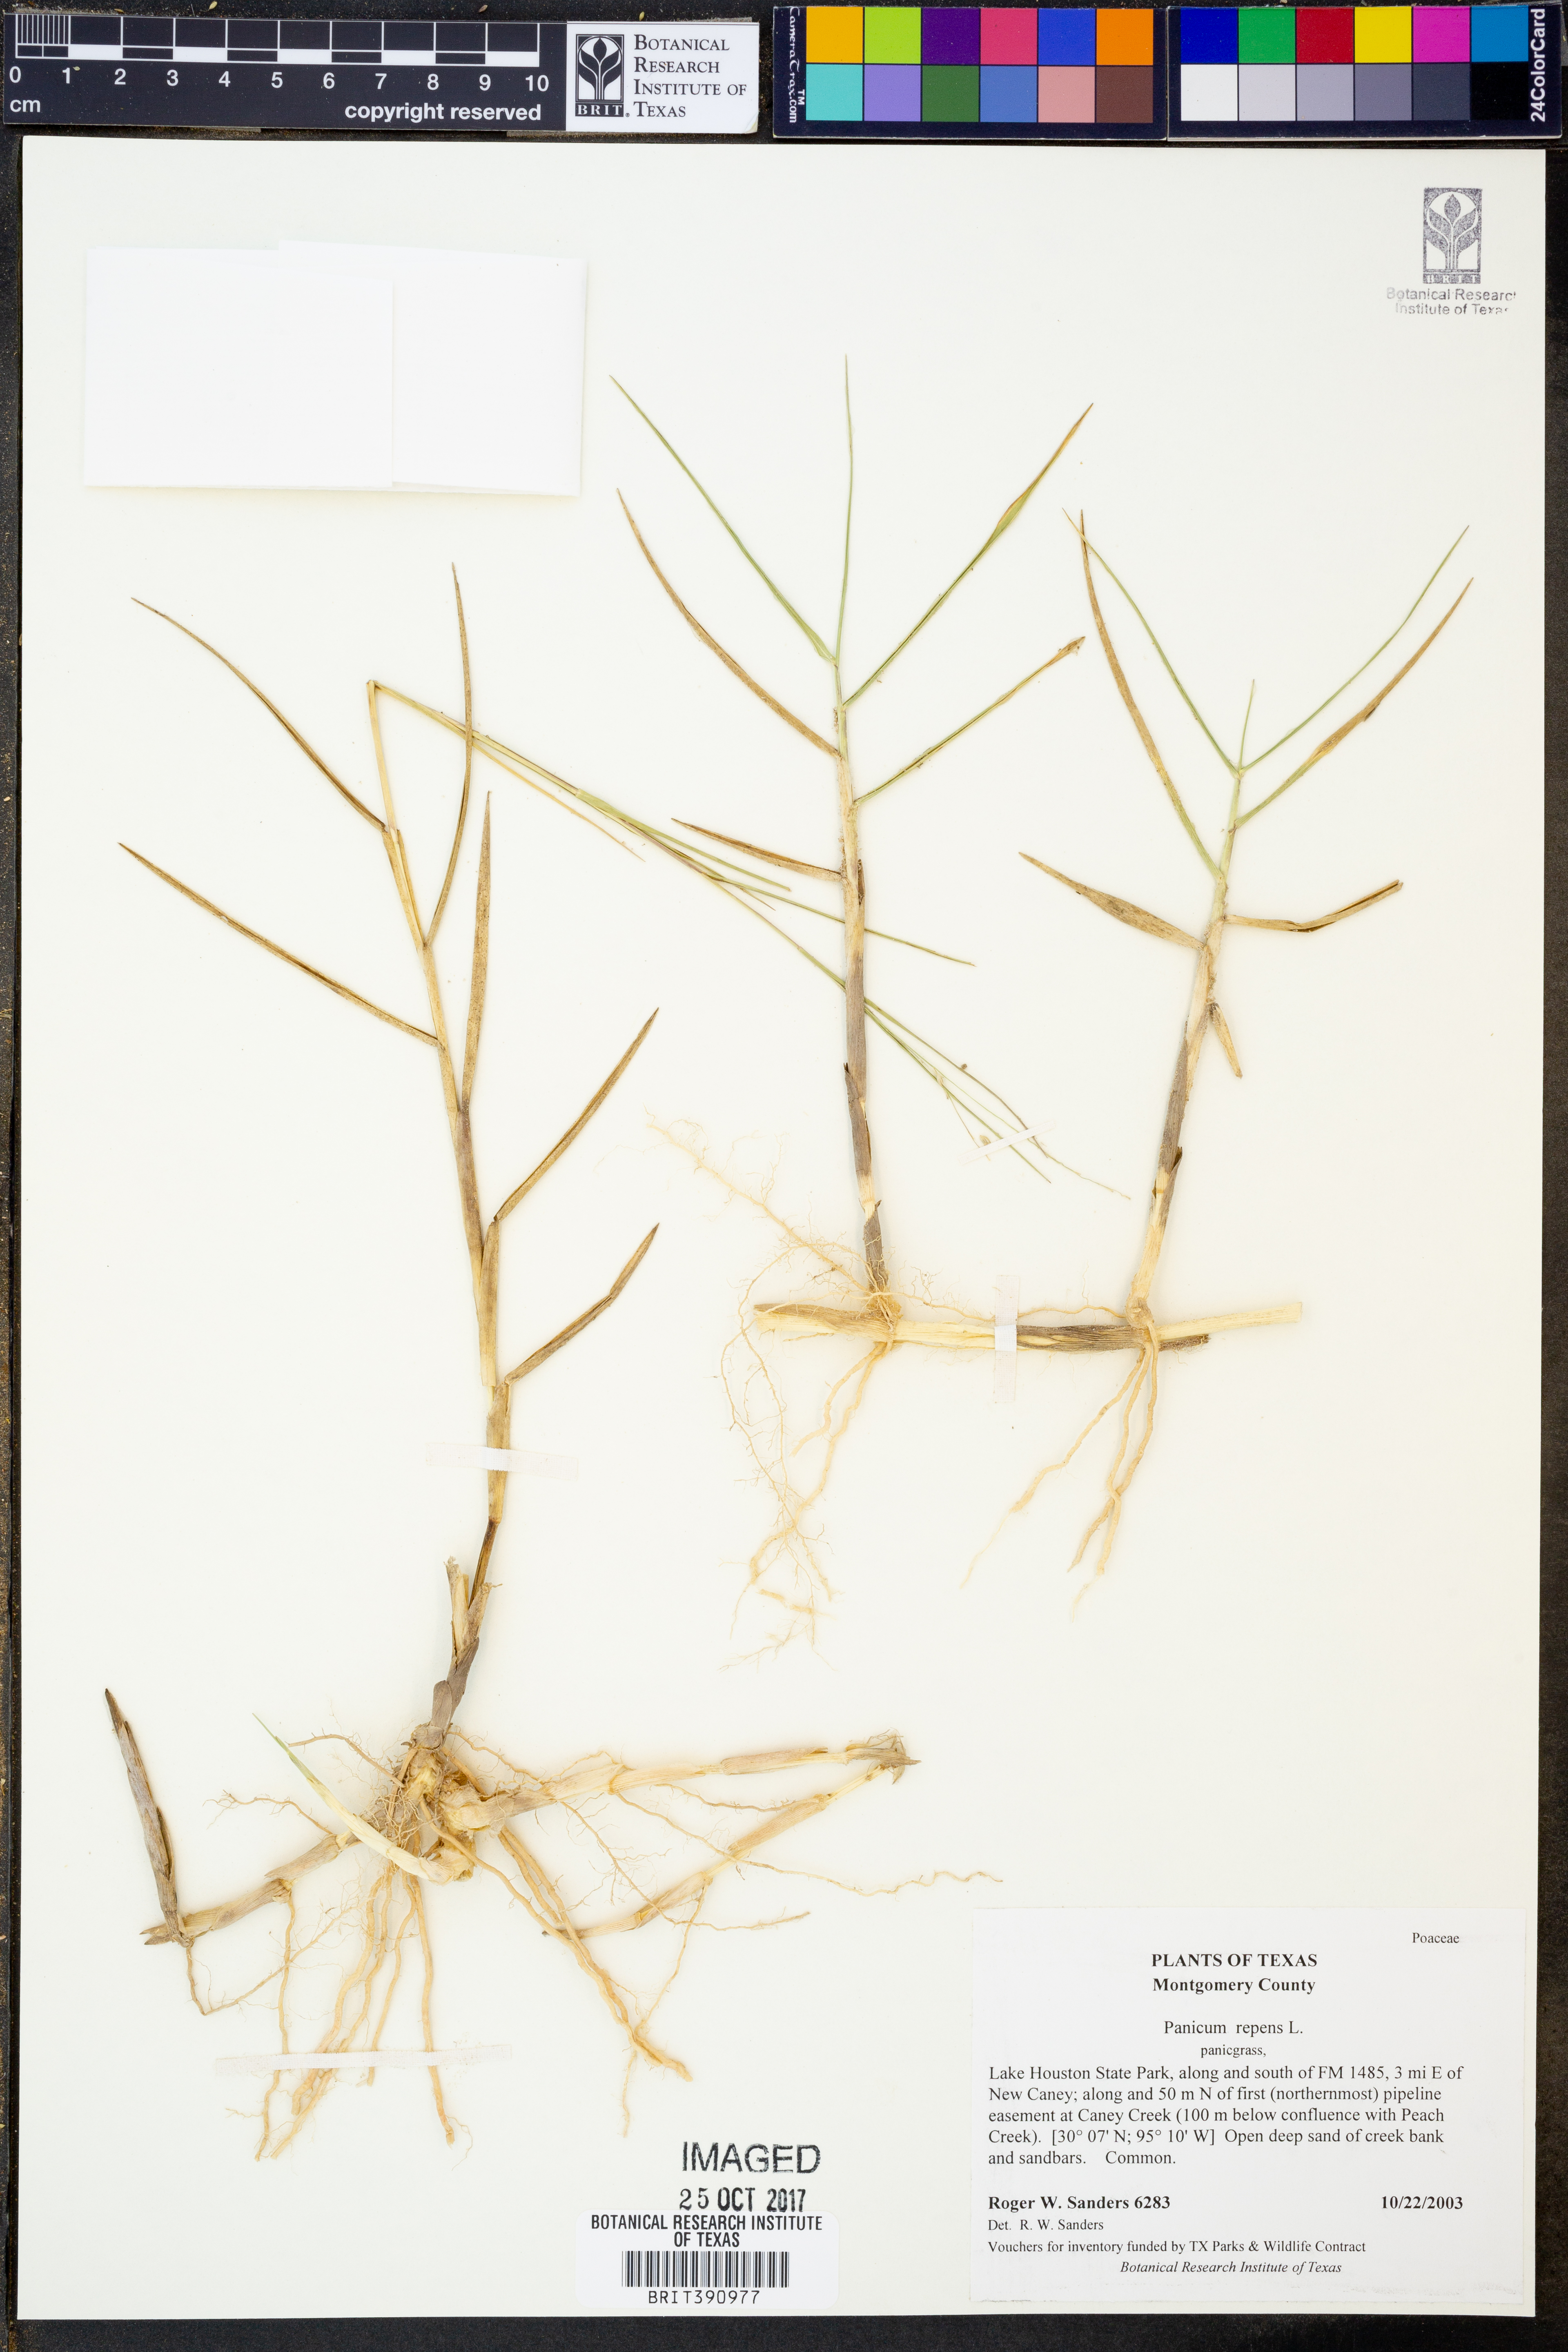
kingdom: Plantae
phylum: Tracheophyta
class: Liliopsida
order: Poales
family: Poaceae
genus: Panicum
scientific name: Panicum repens
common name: Torpedo grass
